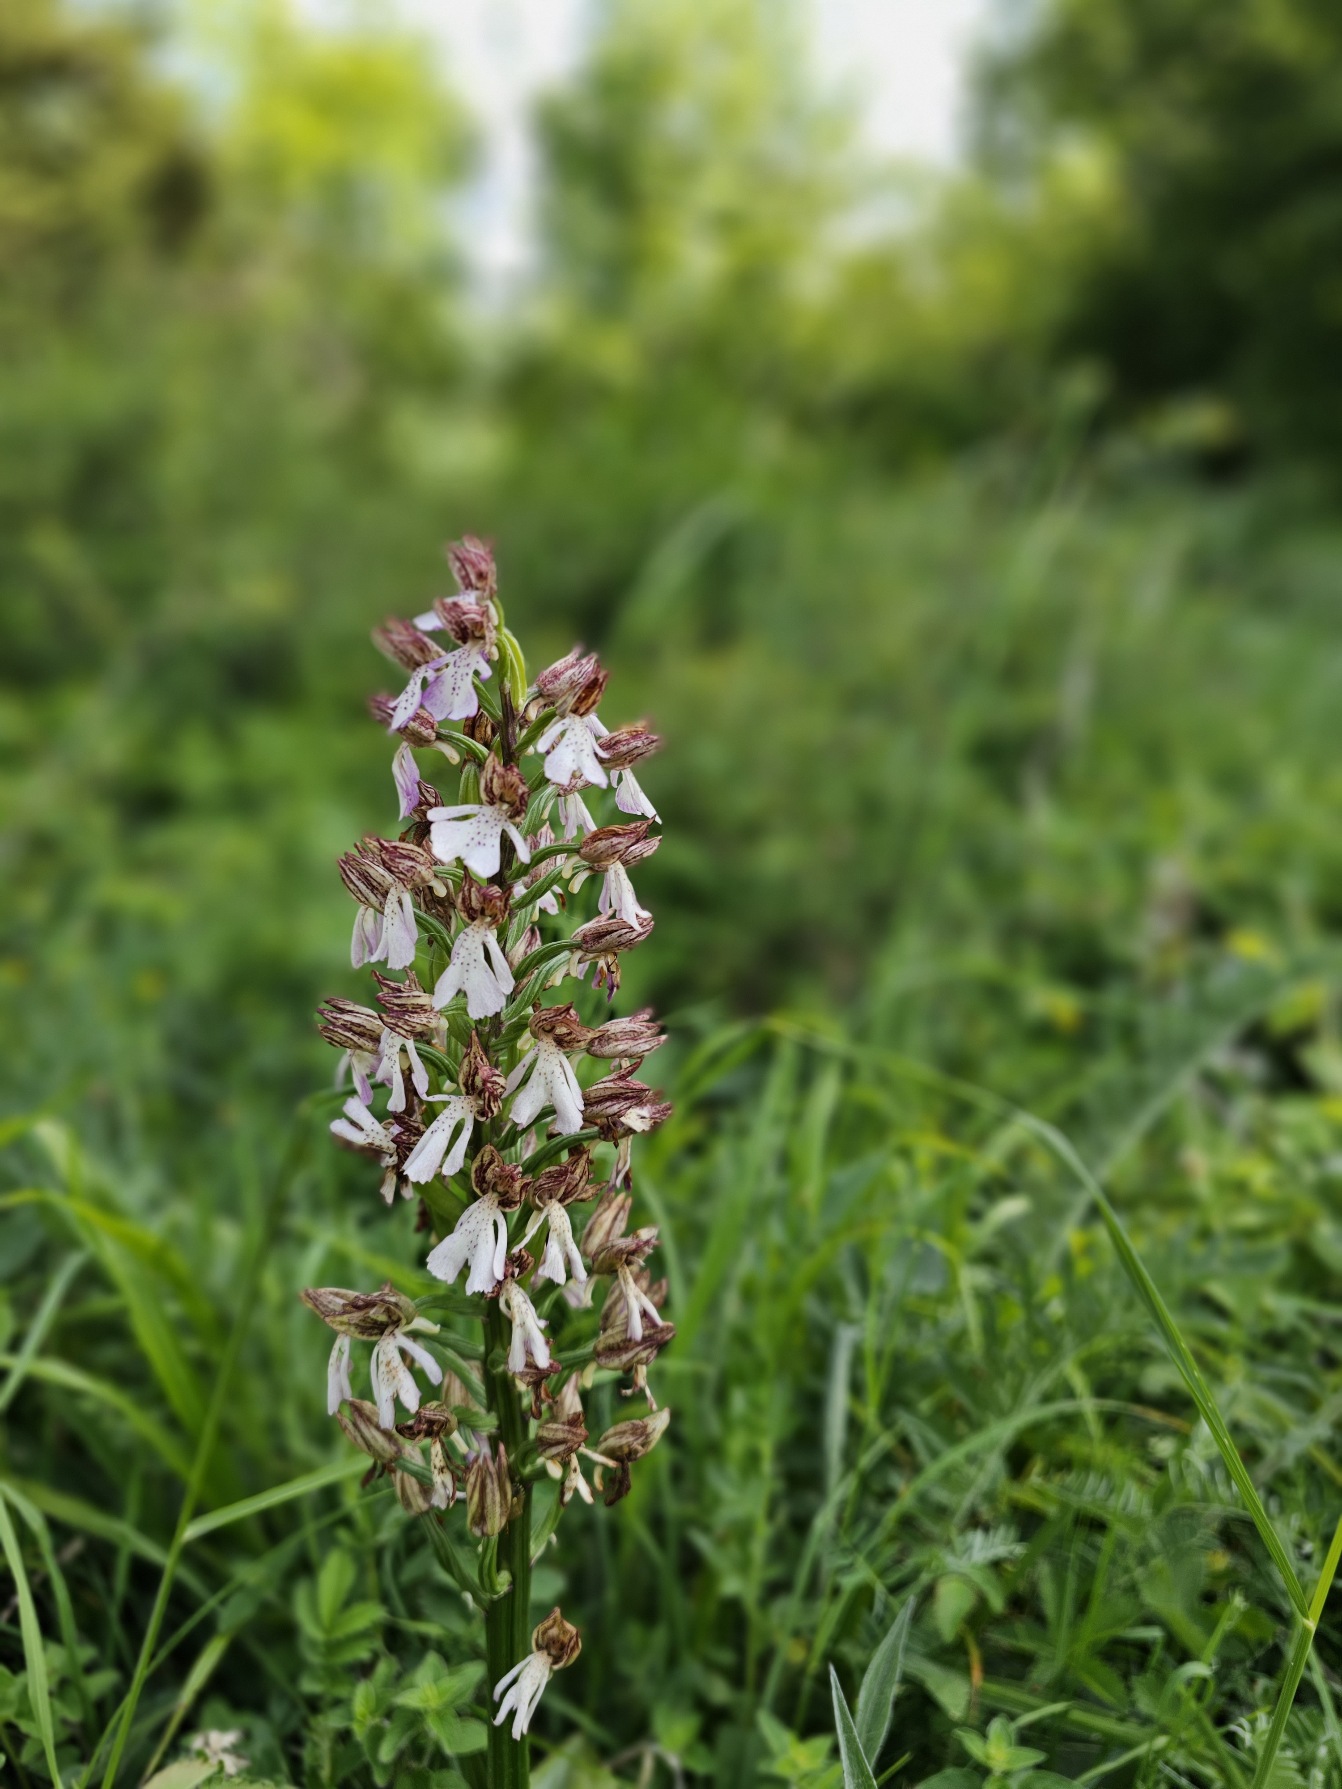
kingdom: Plantae
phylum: Tracheophyta
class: Liliopsida
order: Asparagales
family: Orchidaceae
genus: Orchis
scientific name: Orchis purpurea
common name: Stor gøgeurt
